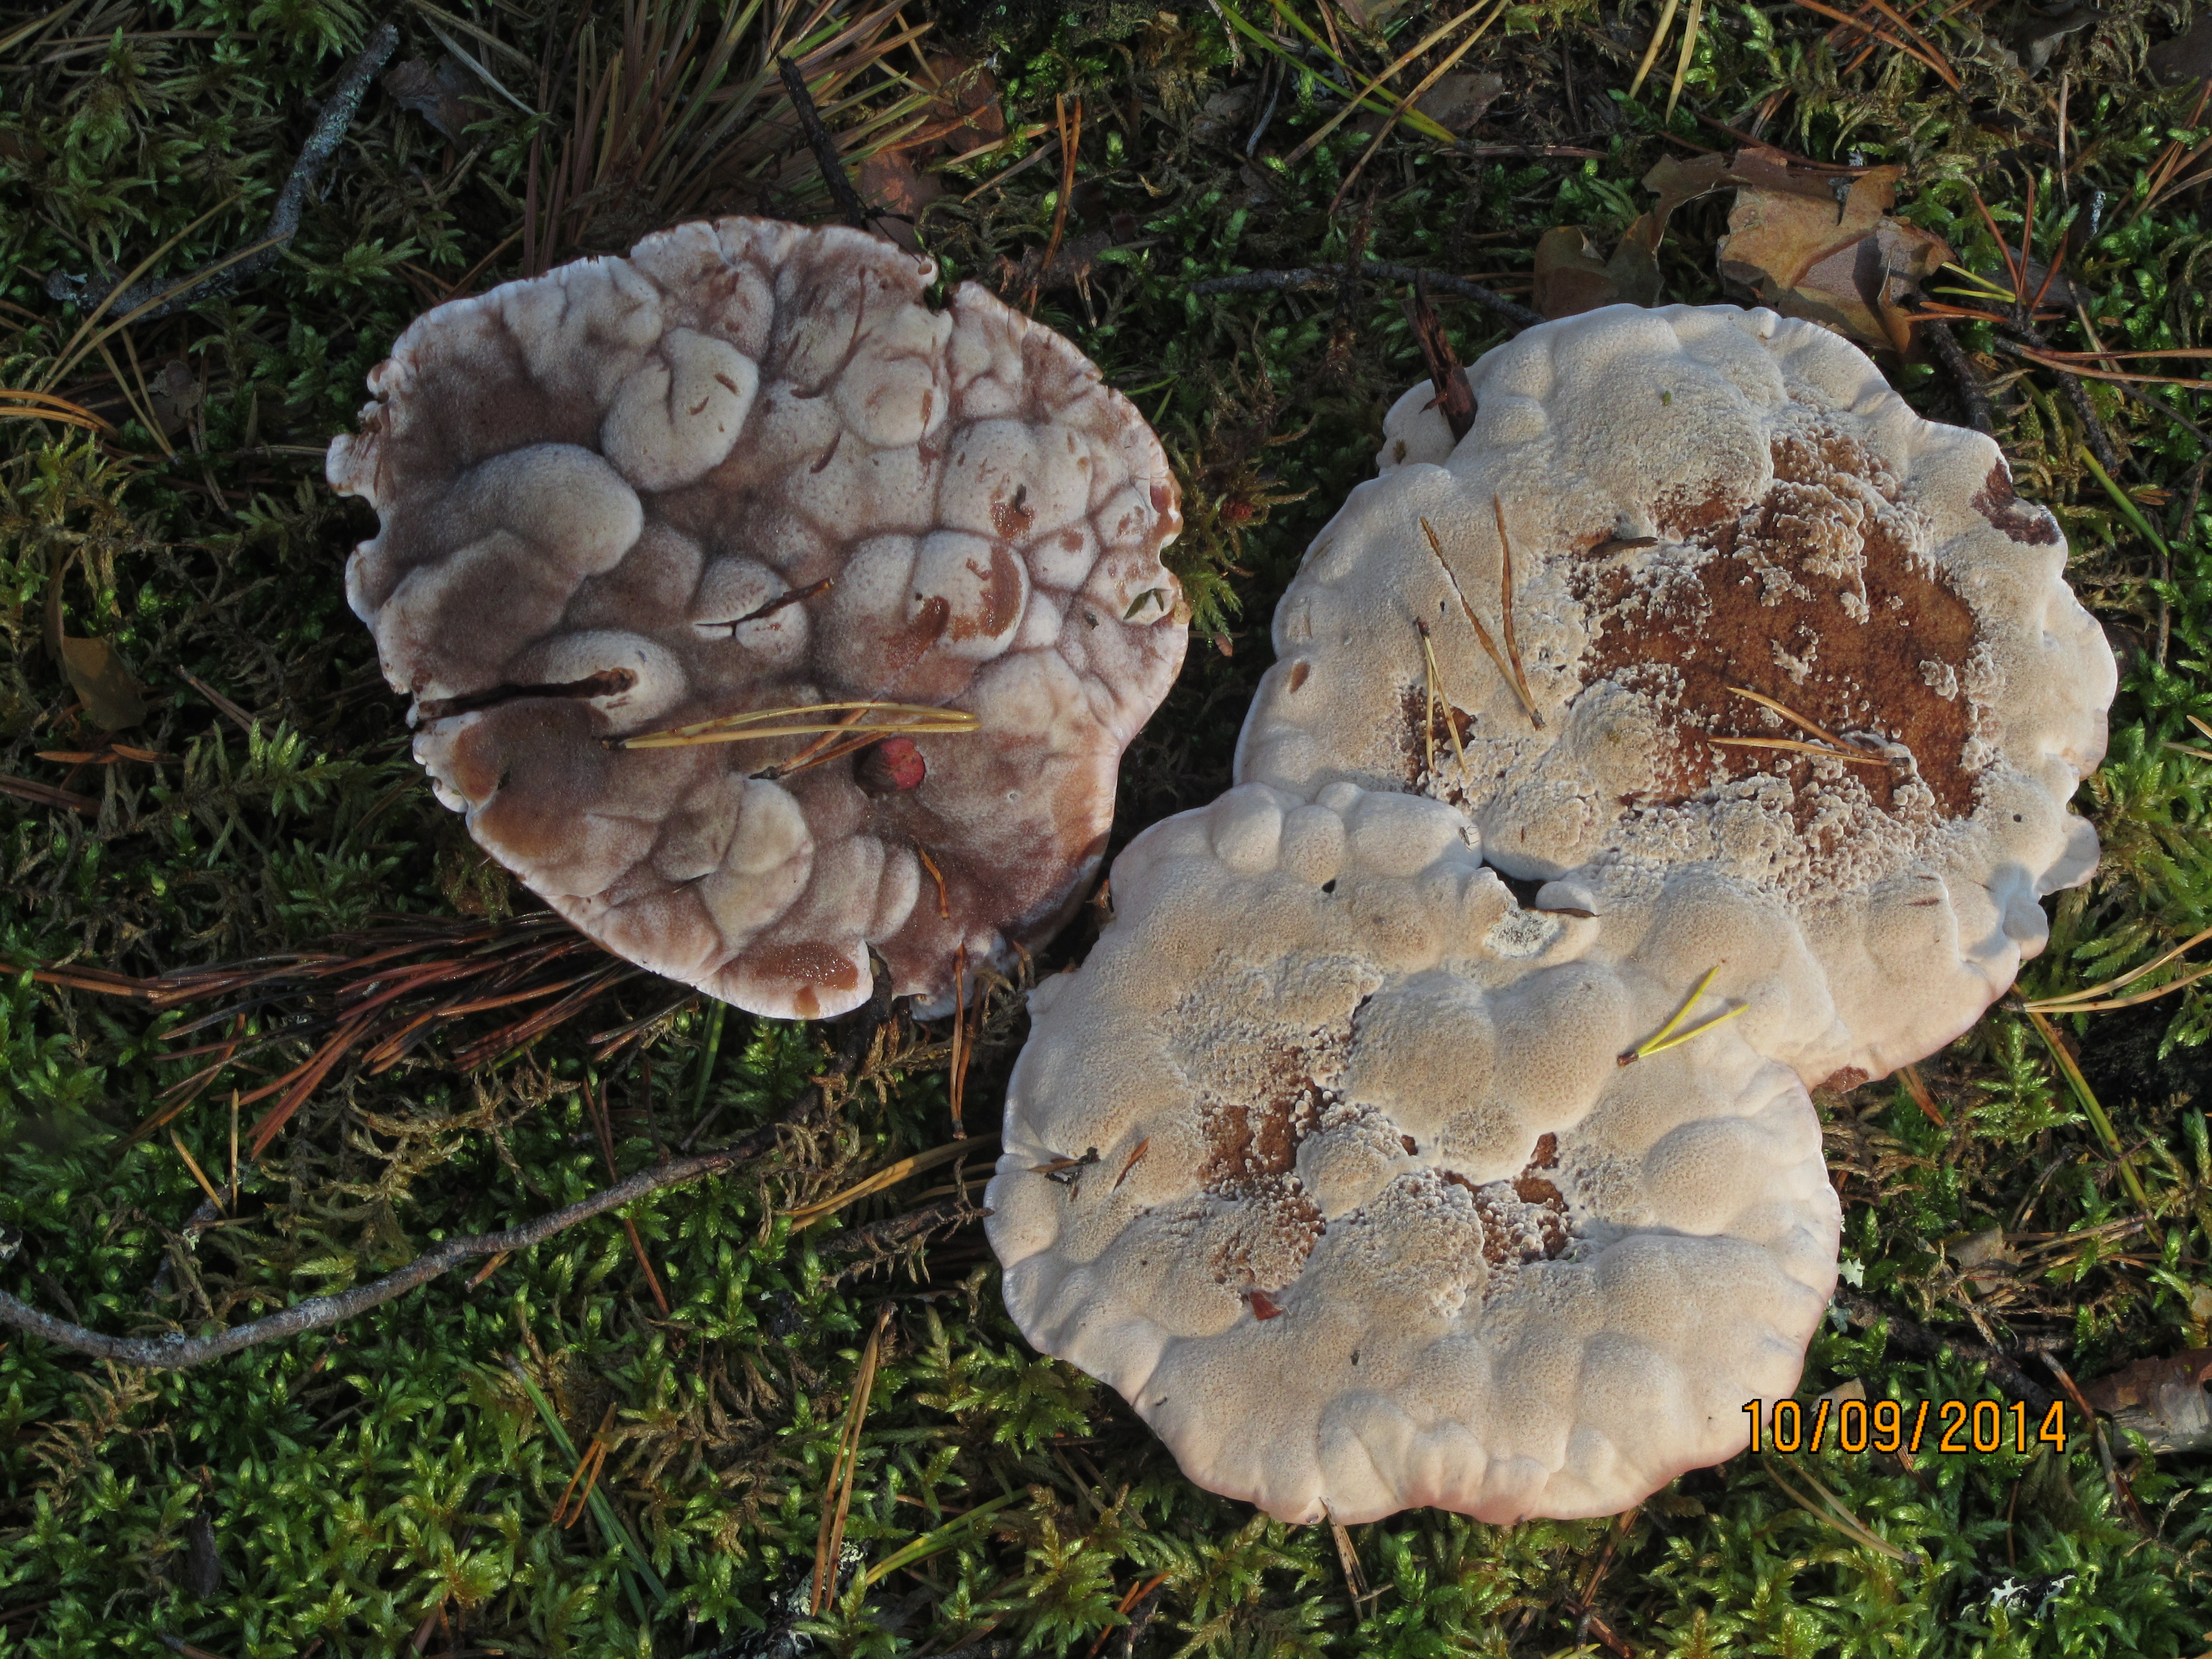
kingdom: Fungi
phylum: Basidiomycota
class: Agaricomycetes
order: Thelephorales
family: Bankeraceae
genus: Hydnellum
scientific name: Hydnellum ferrugineum
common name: Mealy tooth
